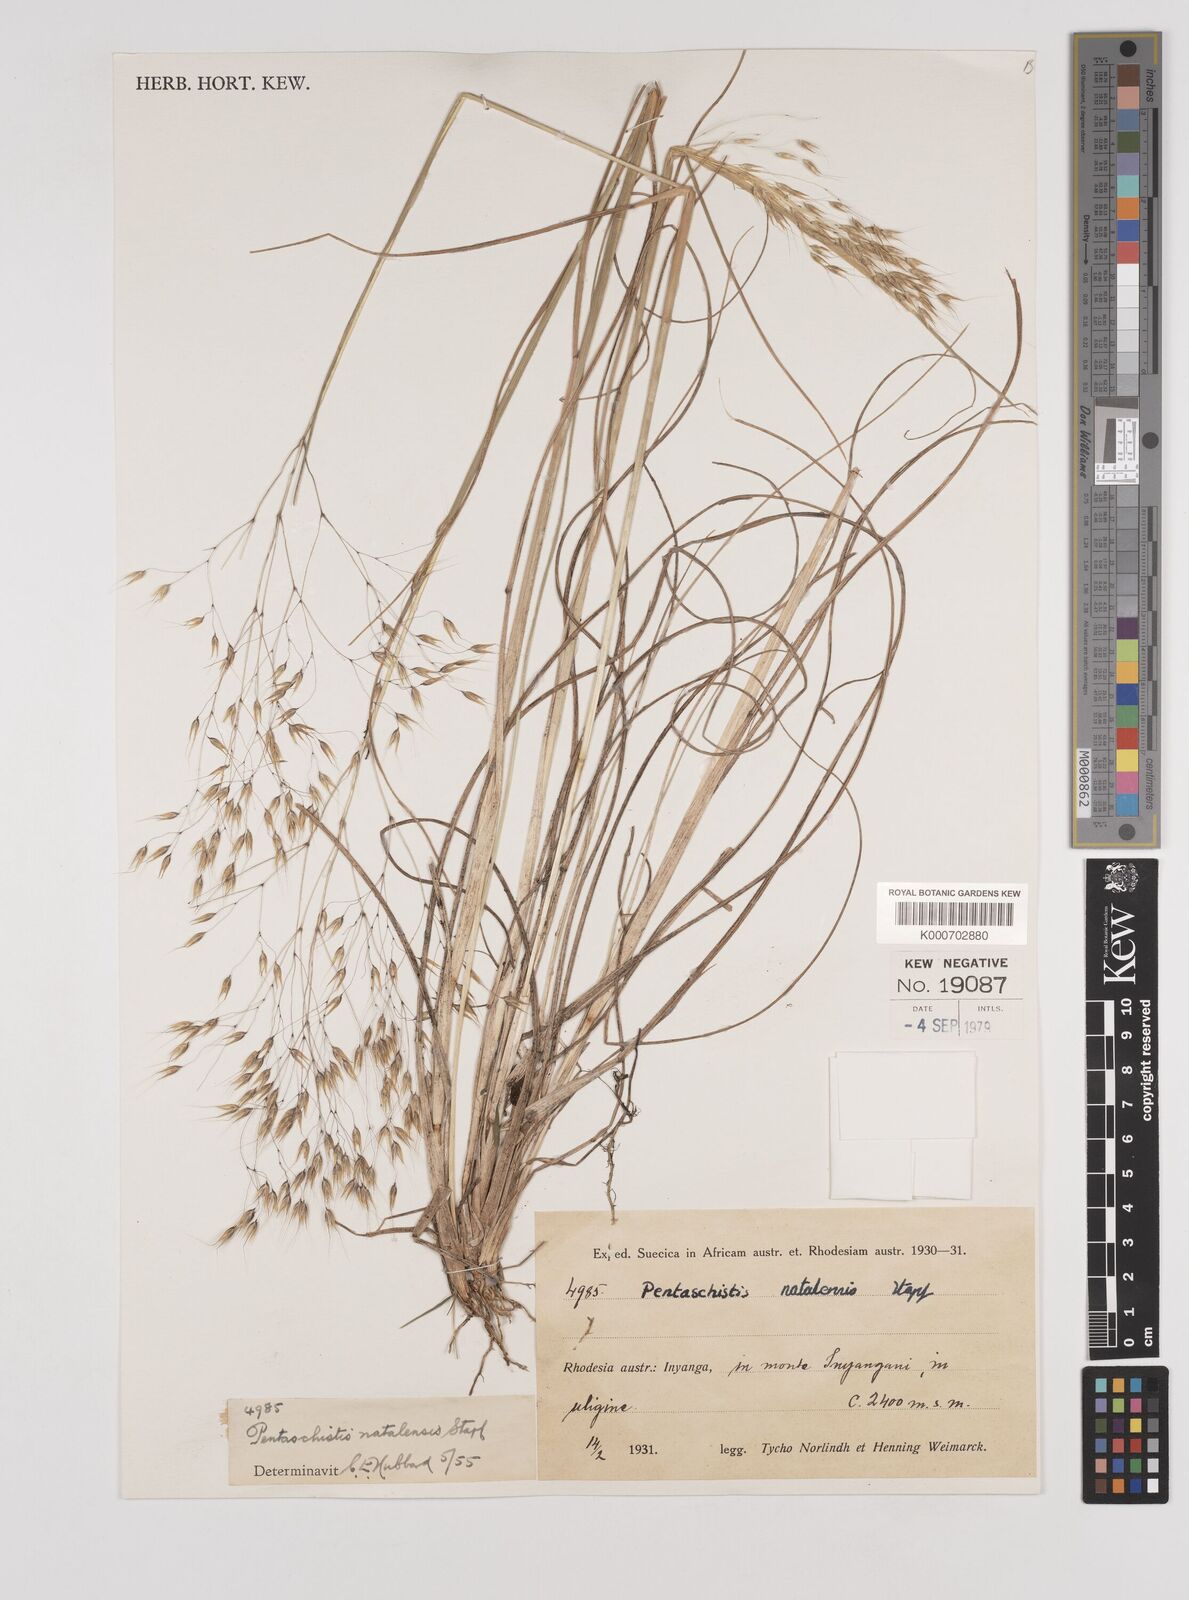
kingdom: Plantae
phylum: Tracheophyta
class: Liliopsida
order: Poales
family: Poaceae
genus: Pentameris
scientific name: Pentameris natalensis
